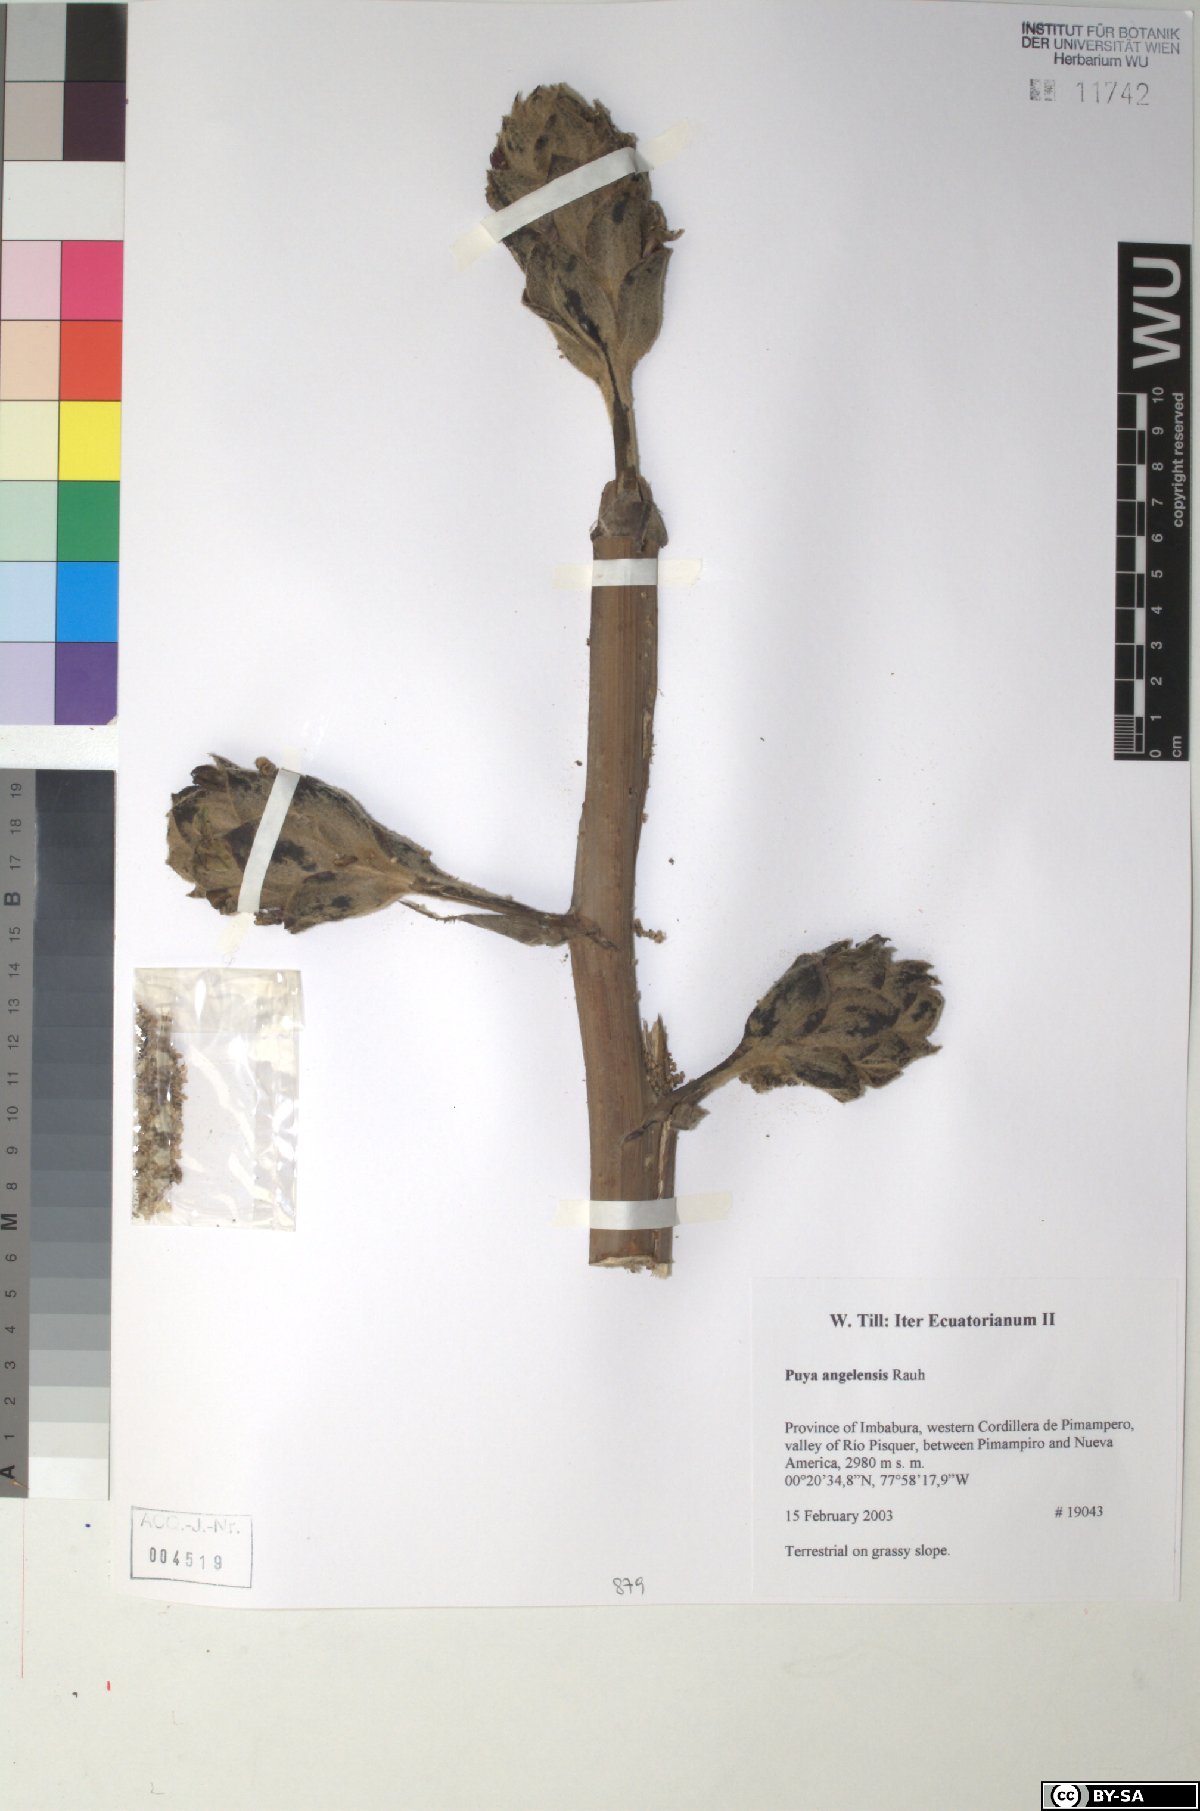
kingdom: Plantae
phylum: Tracheophyta
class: Liliopsida
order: Poales
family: Bromeliaceae
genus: Puya
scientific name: Puya angelensis
